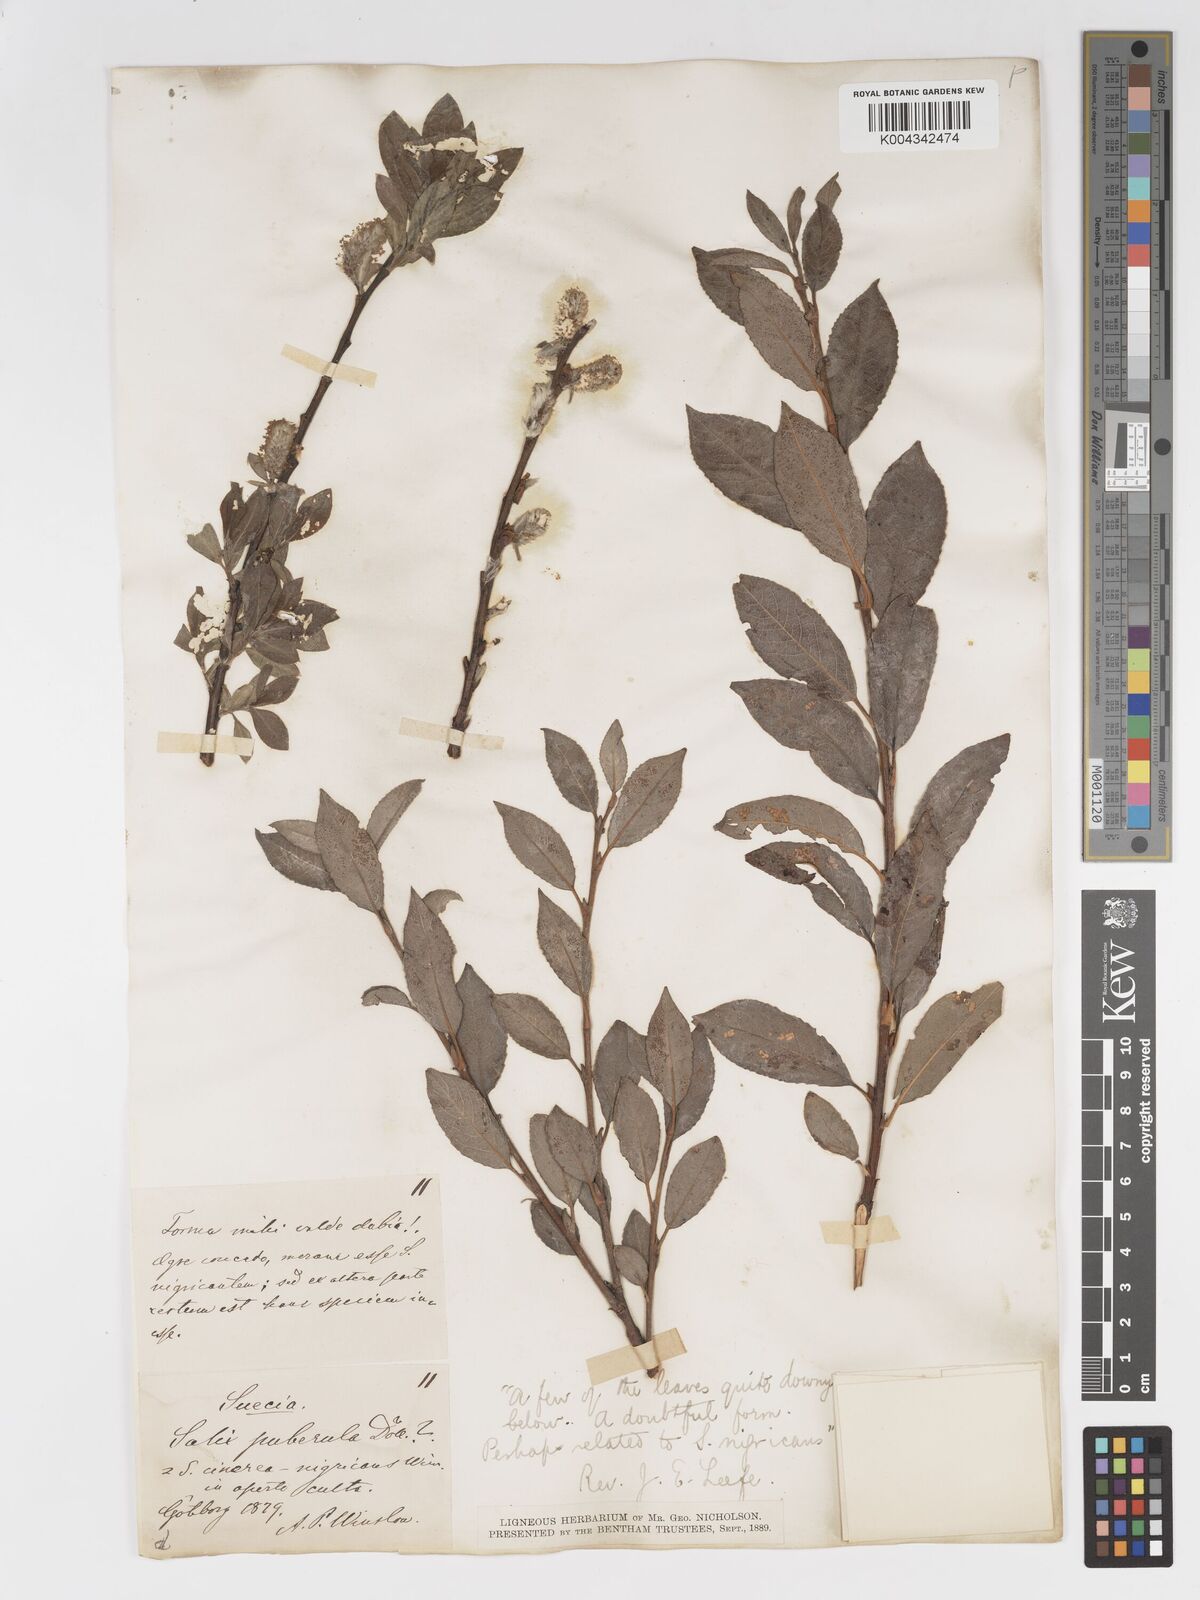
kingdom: Plantae
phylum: Tracheophyta
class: Magnoliopsida
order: Malpighiales
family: Salicaceae
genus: Salix
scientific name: Salix
